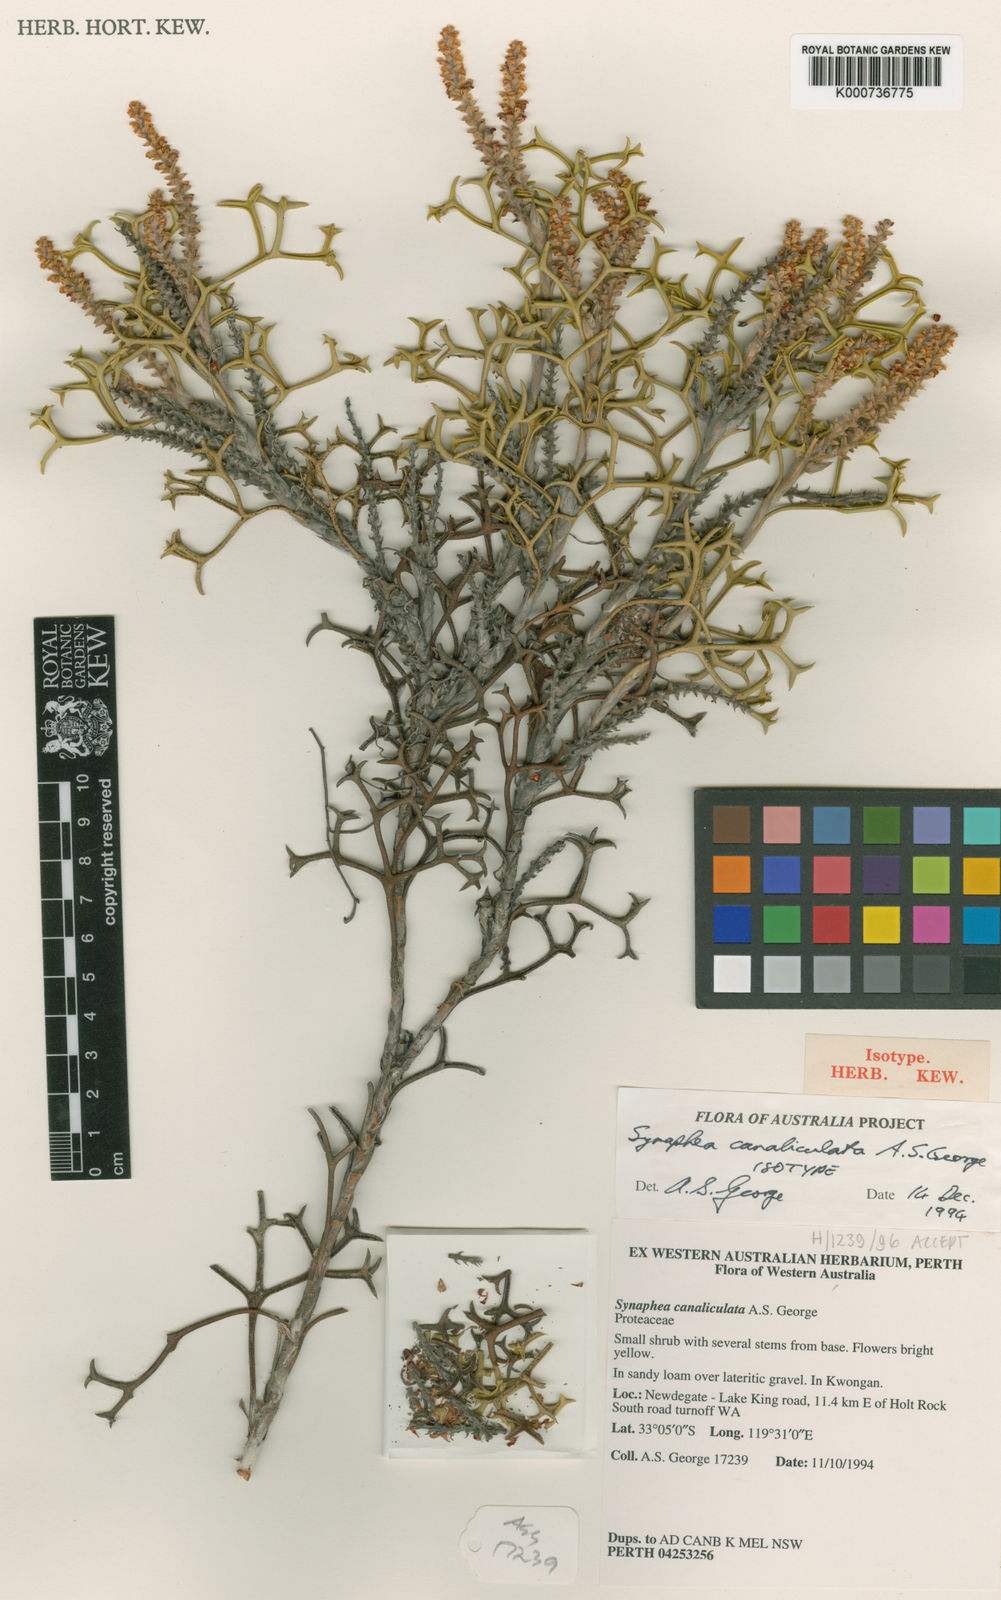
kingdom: Plantae
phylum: Tracheophyta
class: Magnoliopsida
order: Proteales
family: Proteaceae
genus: Synaphea
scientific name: Synaphea canaliculata
